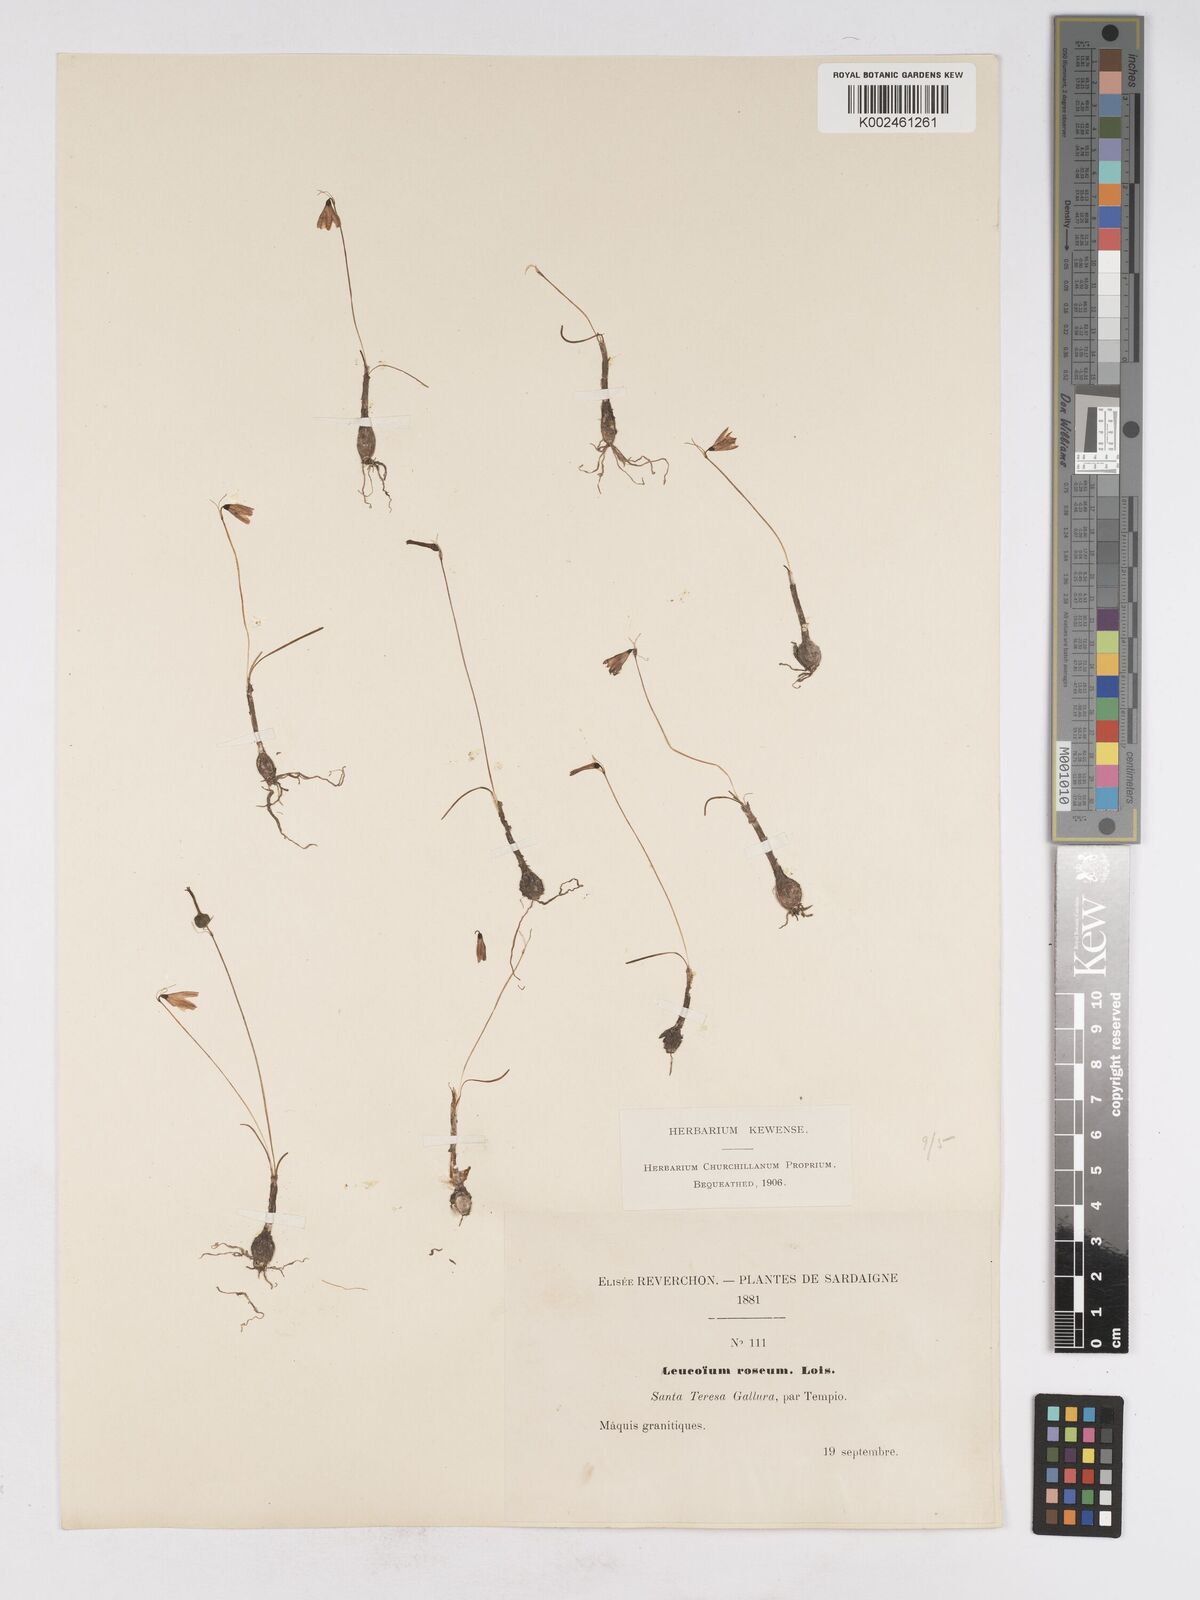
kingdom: Plantae
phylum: Tracheophyta
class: Liliopsida
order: Asparagales
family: Amaryllidaceae
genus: Acis
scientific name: Acis rosea
